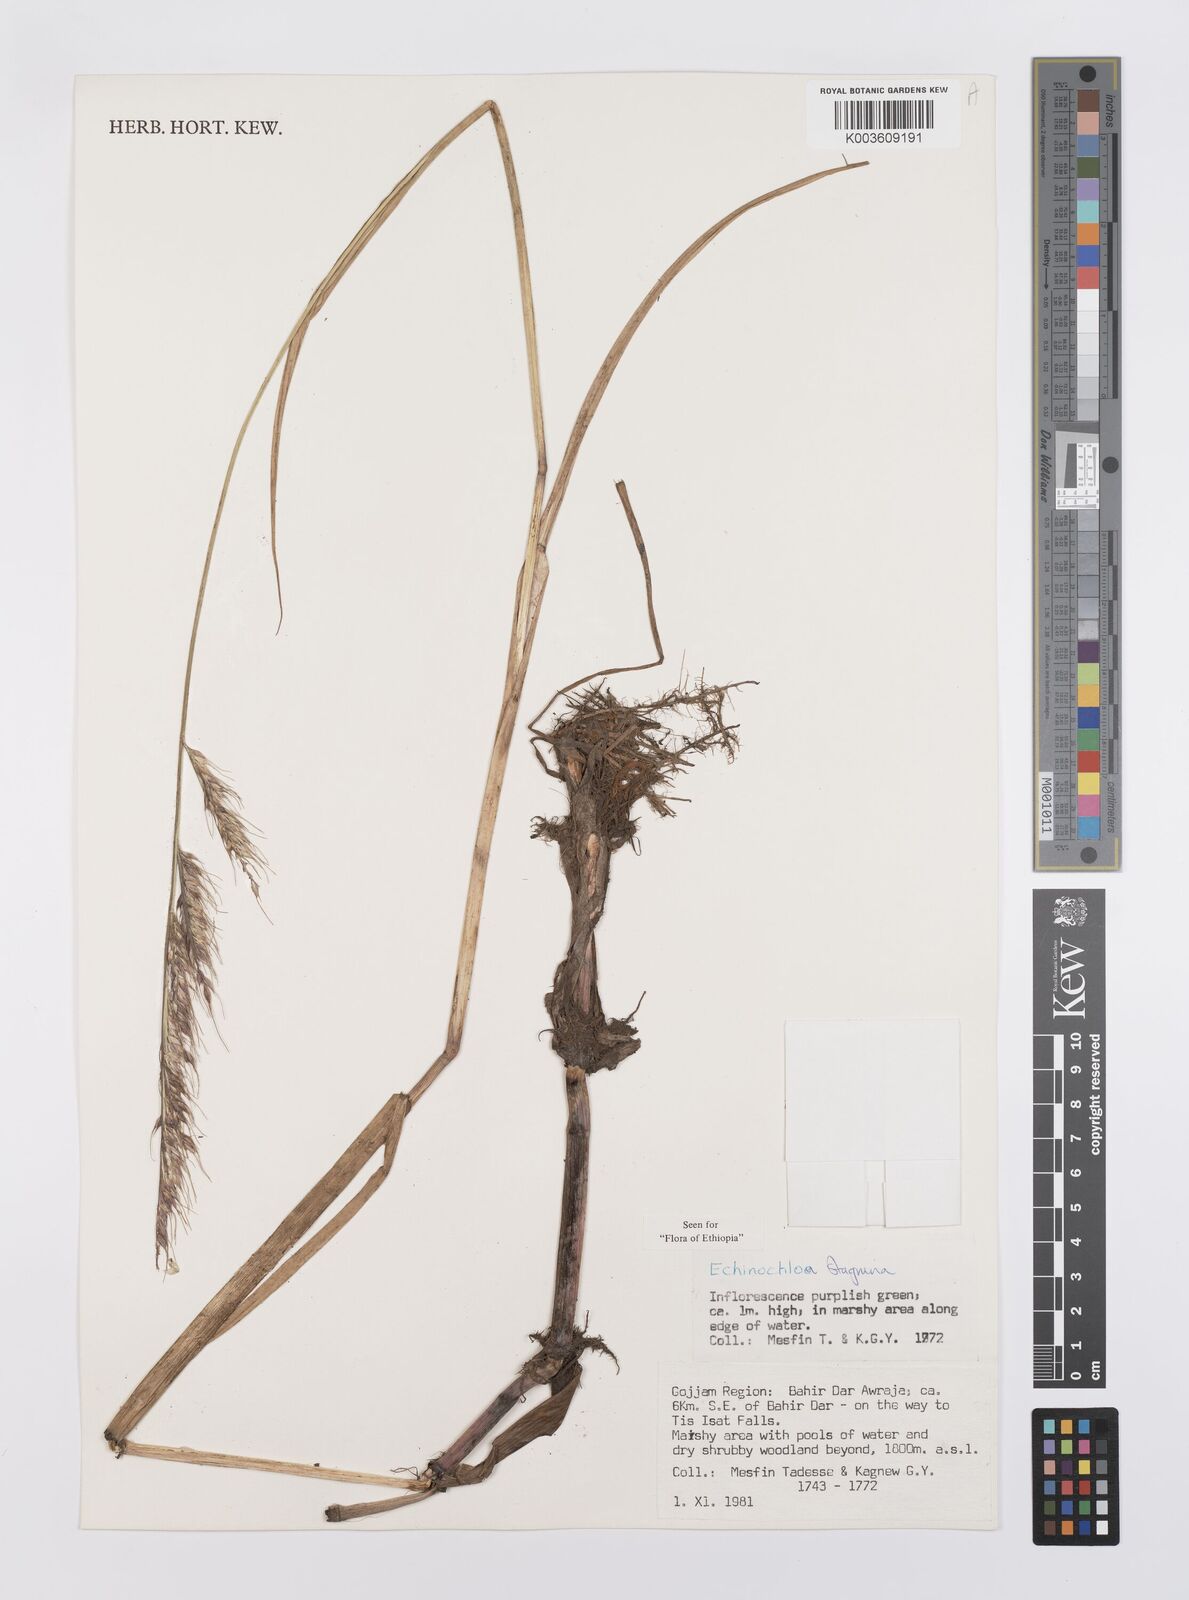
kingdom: Plantae
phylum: Tracheophyta
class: Liliopsida
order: Poales
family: Poaceae
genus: Echinochloa
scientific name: Echinochloa stagnina
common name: Burgu grass
